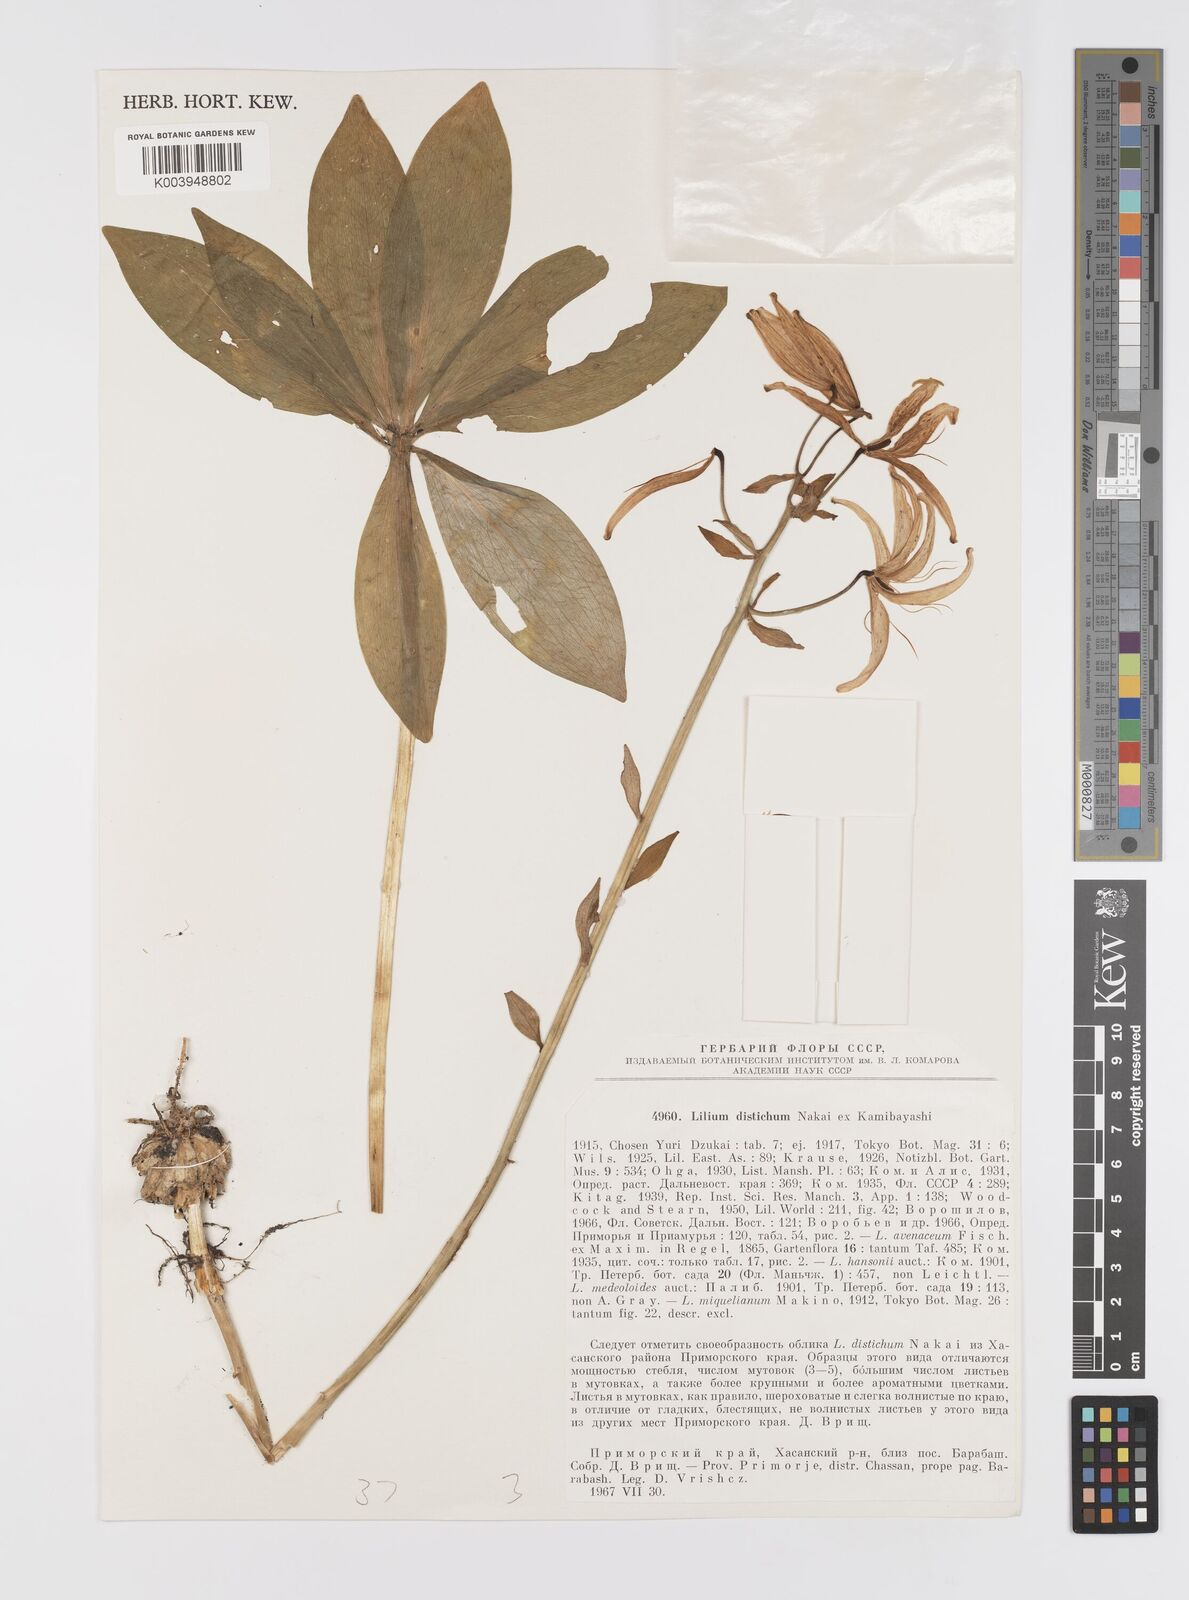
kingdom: Plantae
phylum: Tracheophyta
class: Liliopsida
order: Liliales
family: Liliaceae
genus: Lilium
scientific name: Lilium distichum
